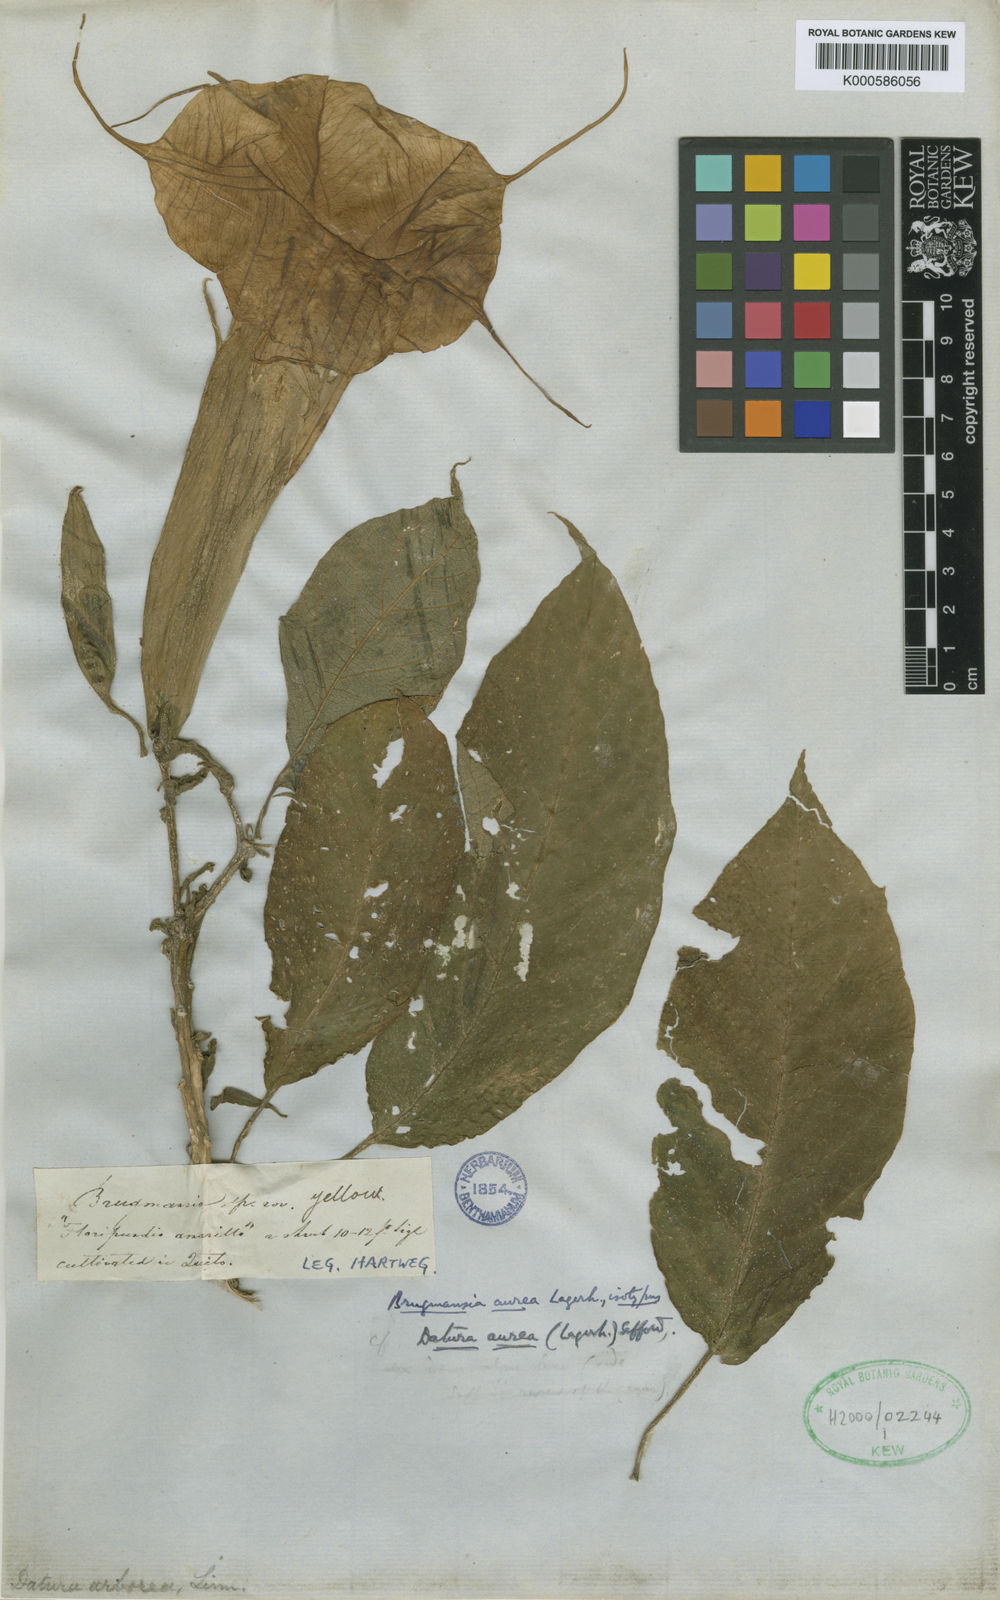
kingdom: Plantae
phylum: Tracheophyta
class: Magnoliopsida
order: Solanales
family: Solanaceae
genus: Brugmansia
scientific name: Brugmansia aurea
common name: Yellow angel's-trumpet
